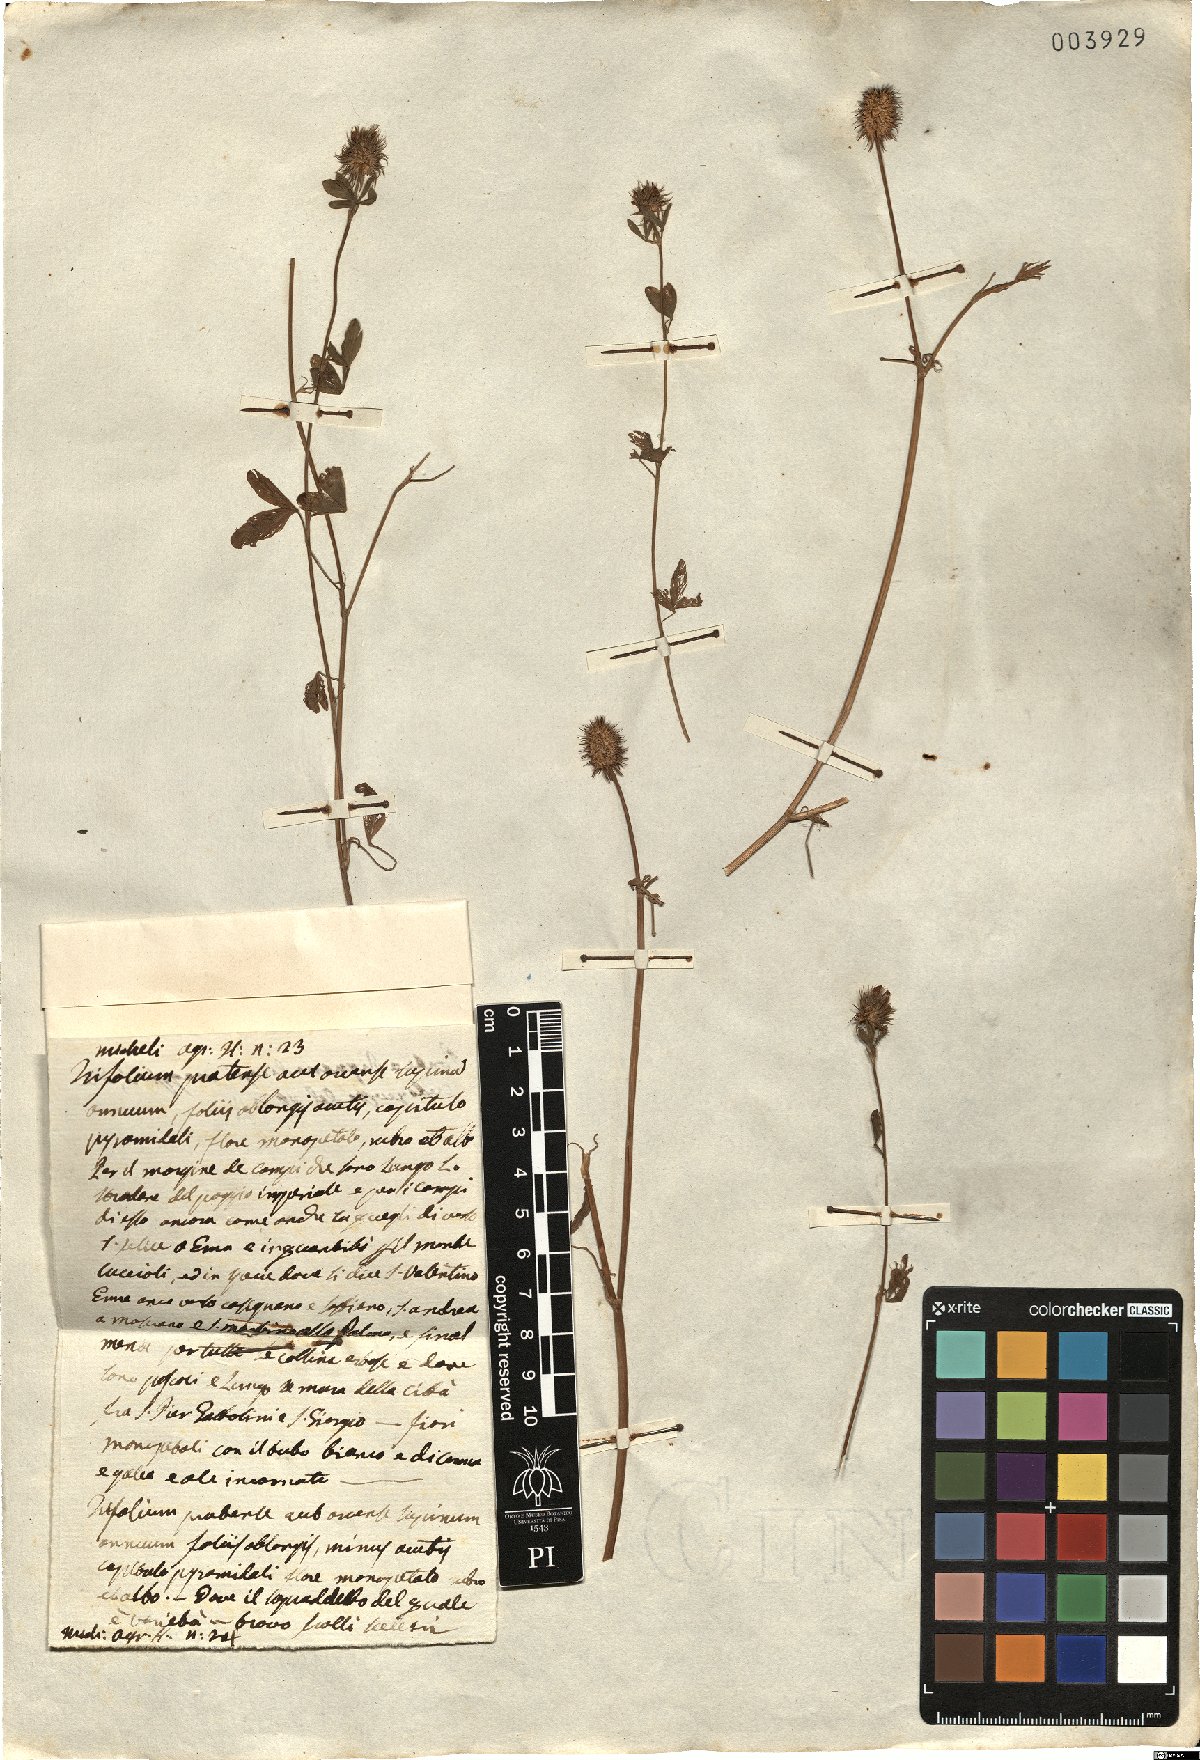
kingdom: Plantae
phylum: Tracheophyta
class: Magnoliopsida
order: Fabales
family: Fabaceae
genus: Trifolium
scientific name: Trifolium echinatum
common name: Hedgehog clover
